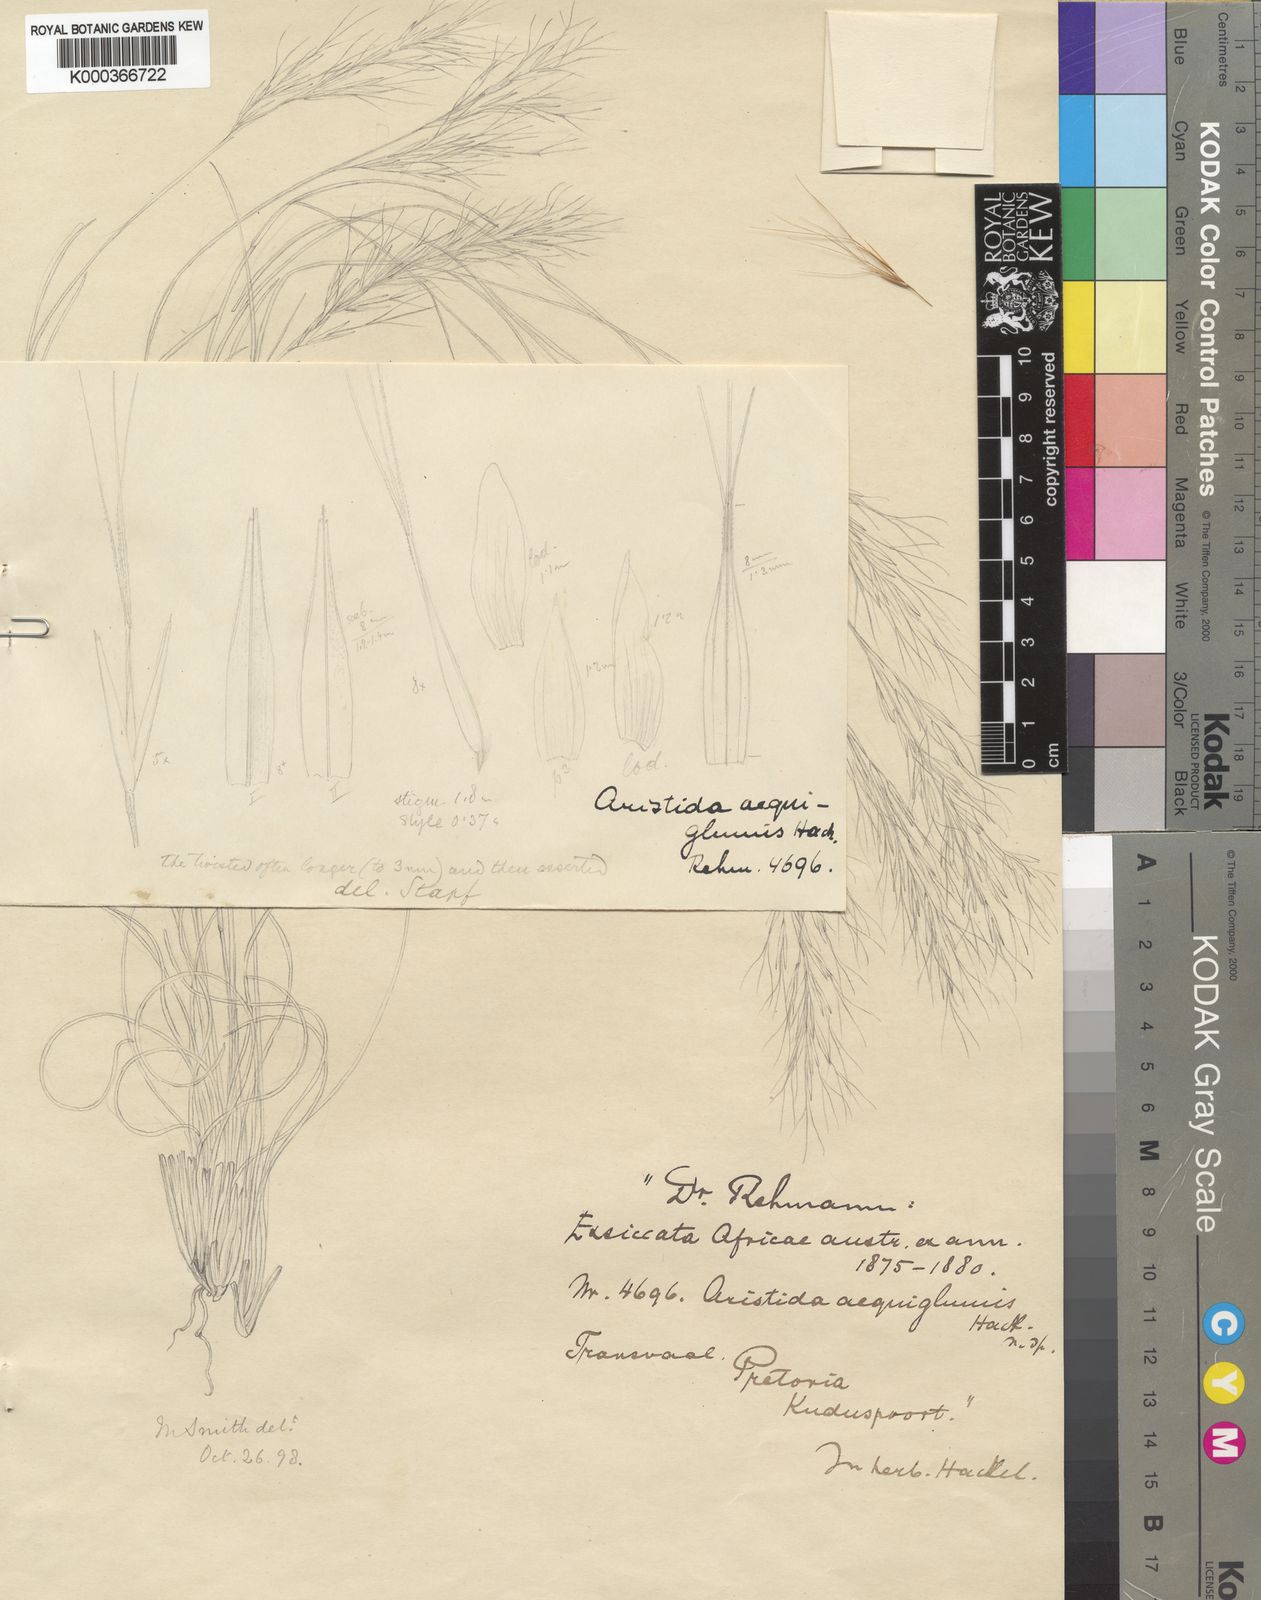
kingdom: Plantae
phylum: Tracheophyta
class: Liliopsida
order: Poales
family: Poaceae
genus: Aristida
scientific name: Aristida aequiglumis
